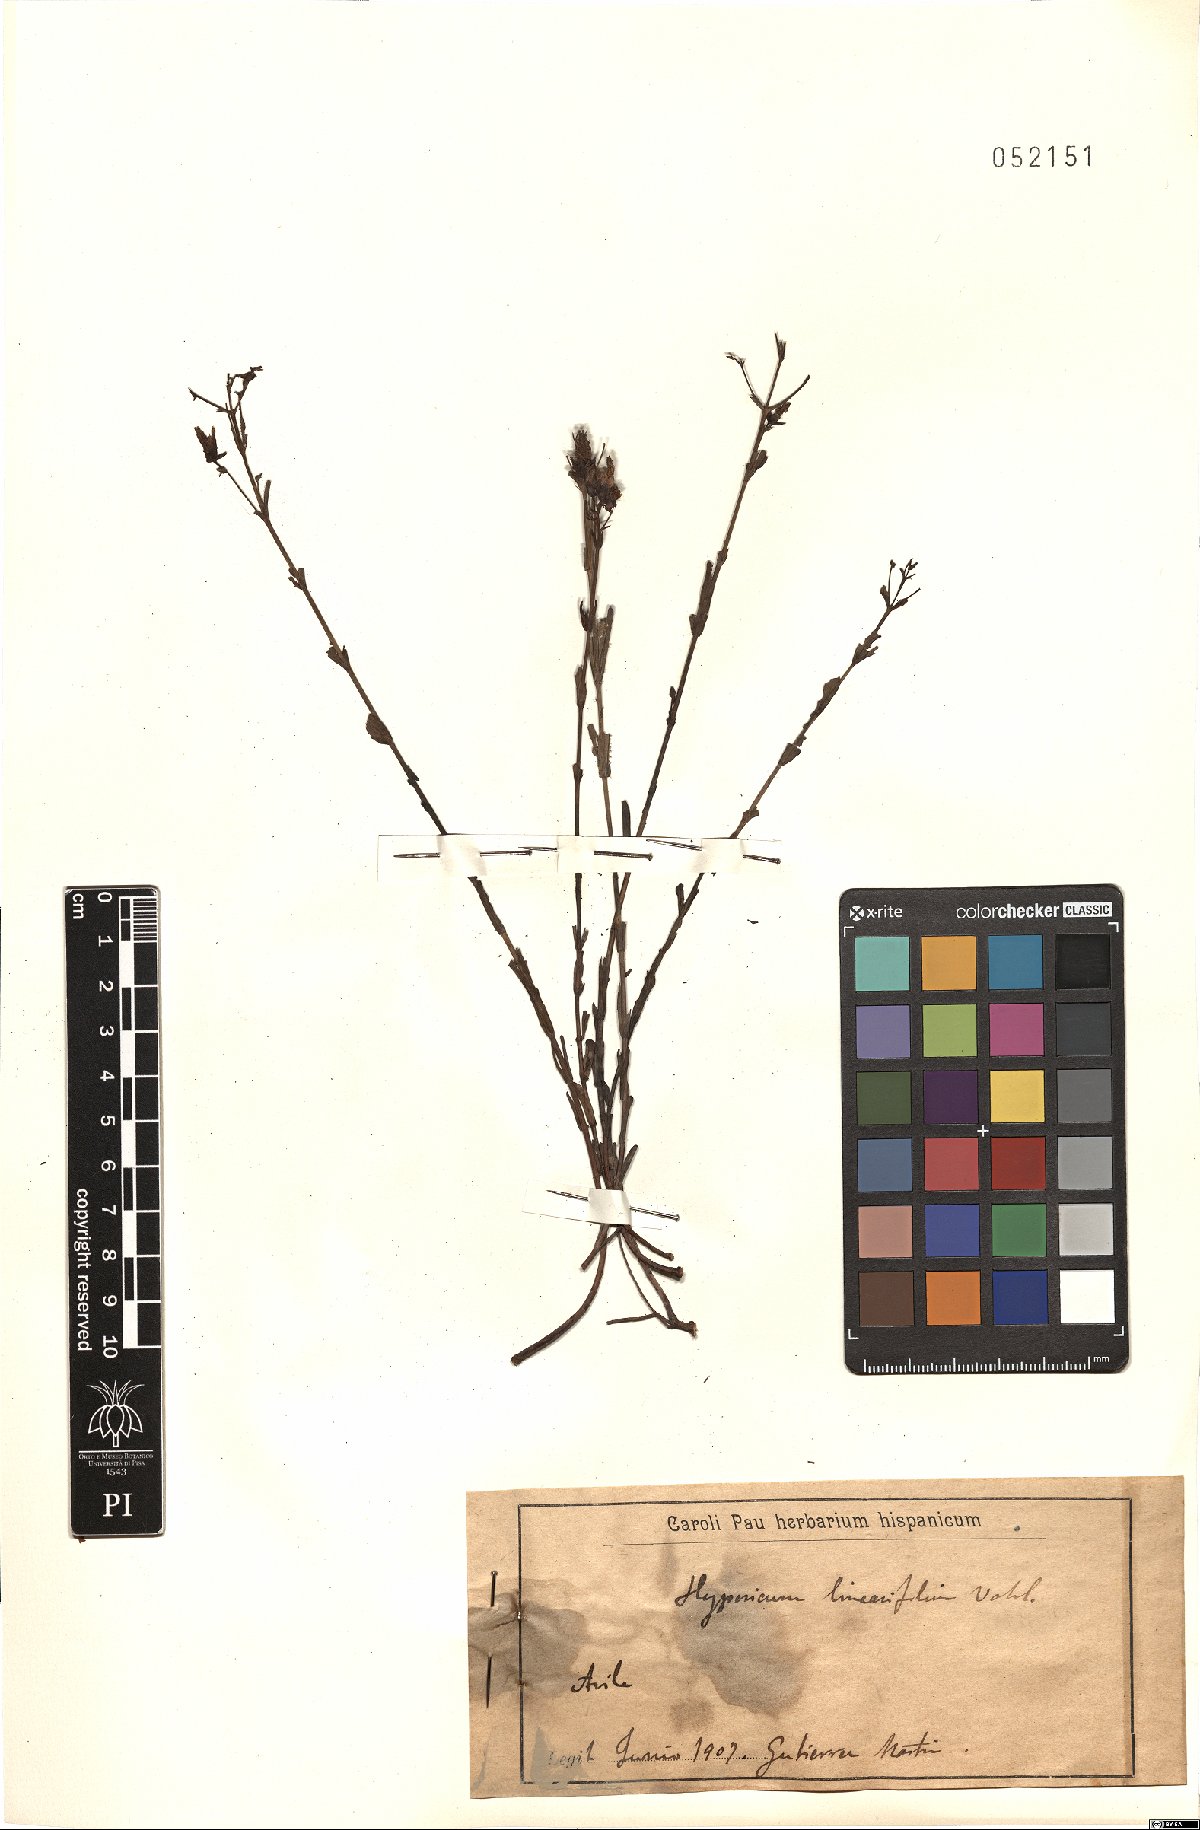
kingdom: Plantae
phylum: Tracheophyta
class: Magnoliopsida
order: Malpighiales
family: Hypericaceae
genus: Hypericum
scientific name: Hypericum linariifolium
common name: Toadflax-leaved st. john's-wort
